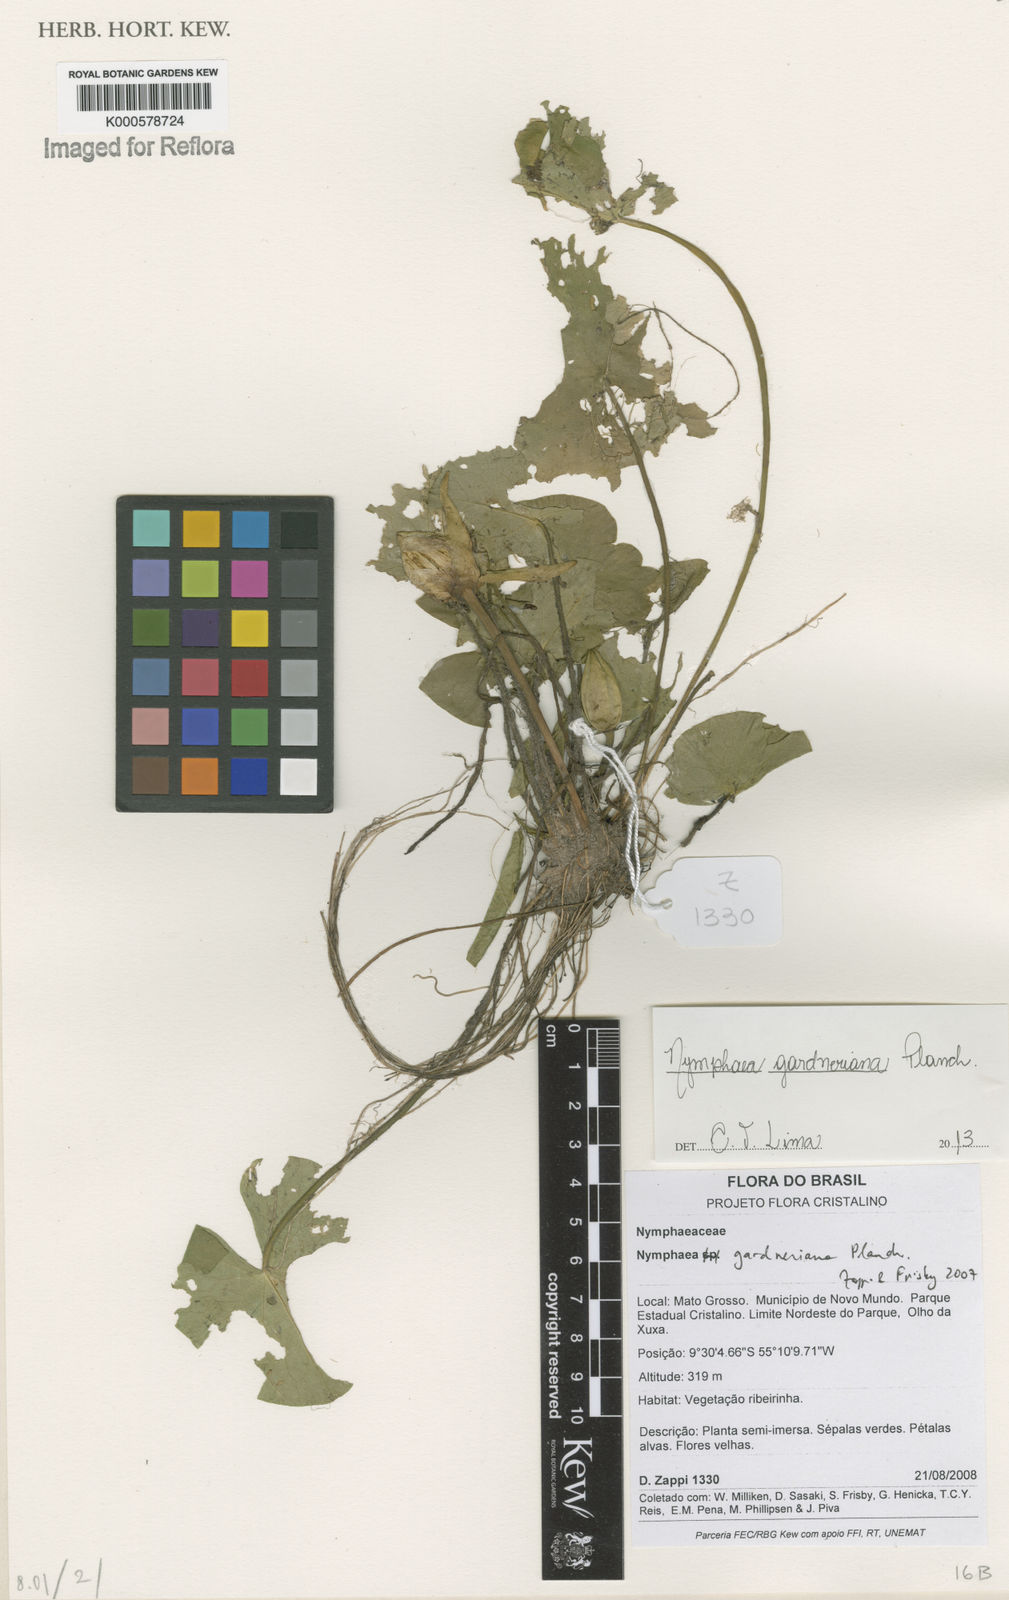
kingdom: Plantae
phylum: Tracheophyta
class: Magnoliopsida
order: Nymphaeales
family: Nymphaeaceae
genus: Nymphaea
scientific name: Nymphaea gardneriana
